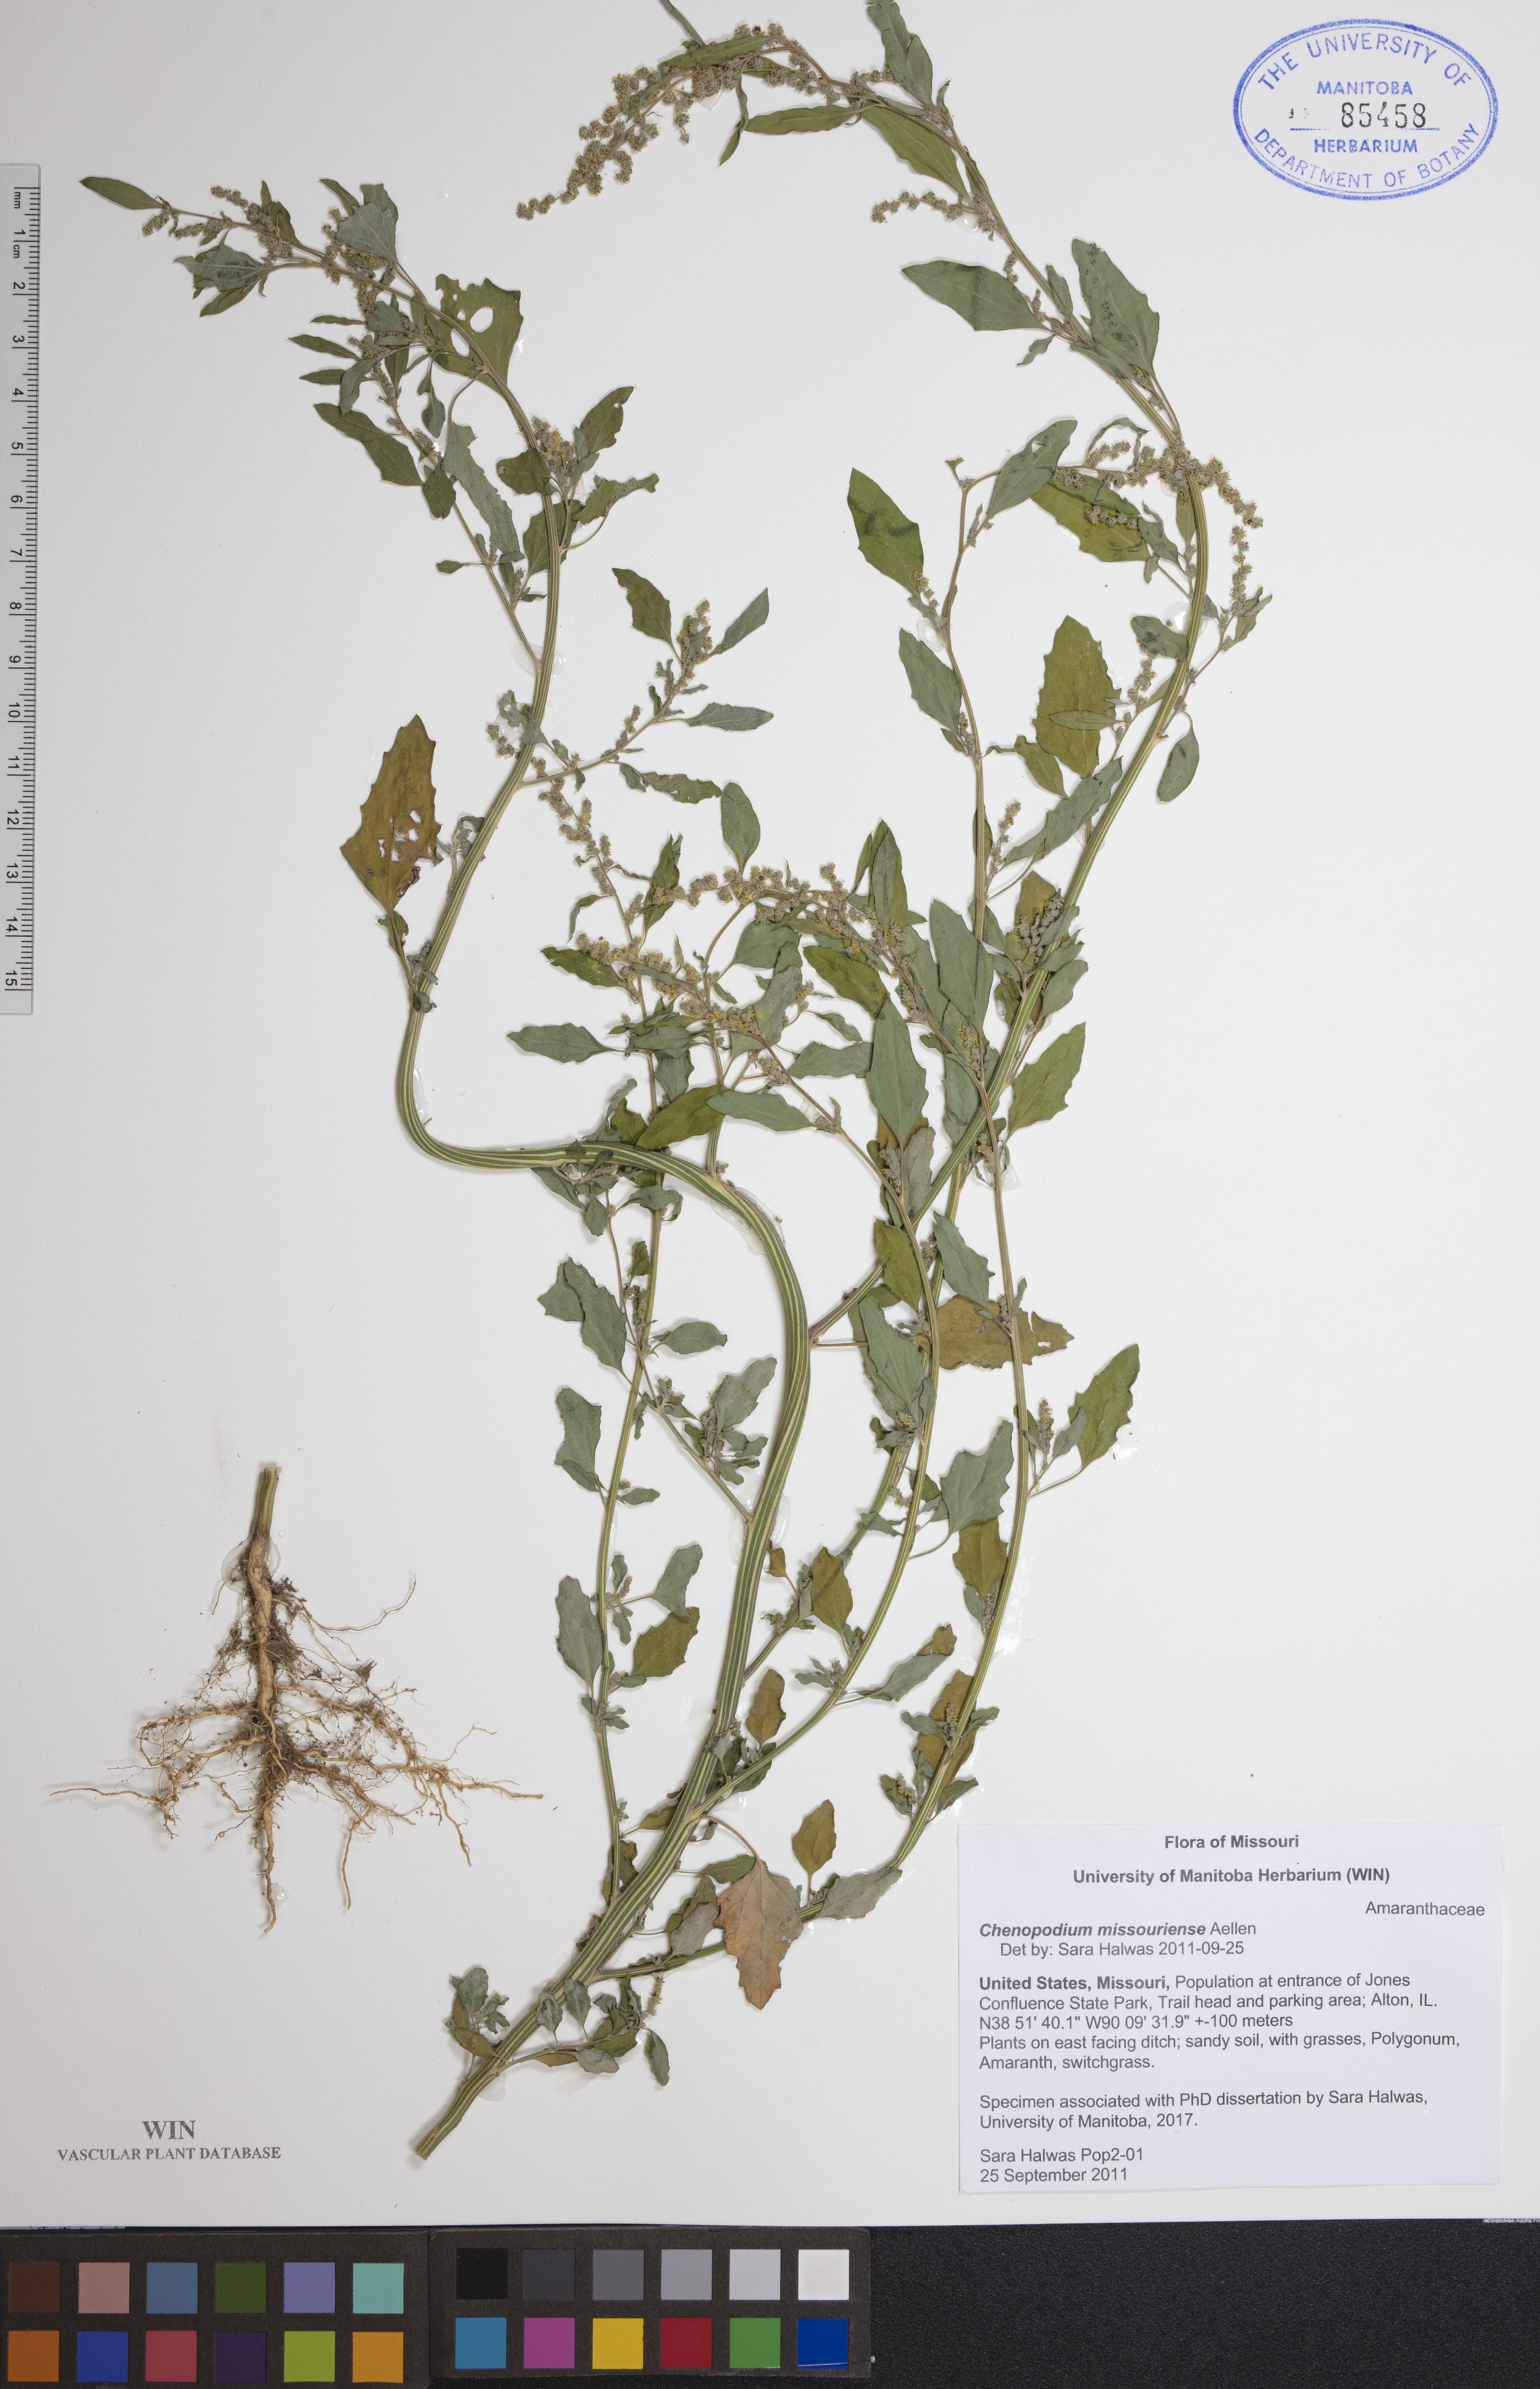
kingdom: Plantae
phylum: Tracheophyta
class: Magnoliopsida
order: Caryophyllales
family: Amaranthaceae
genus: Chenopodium
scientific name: Chenopodium album
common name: Fat-hen
